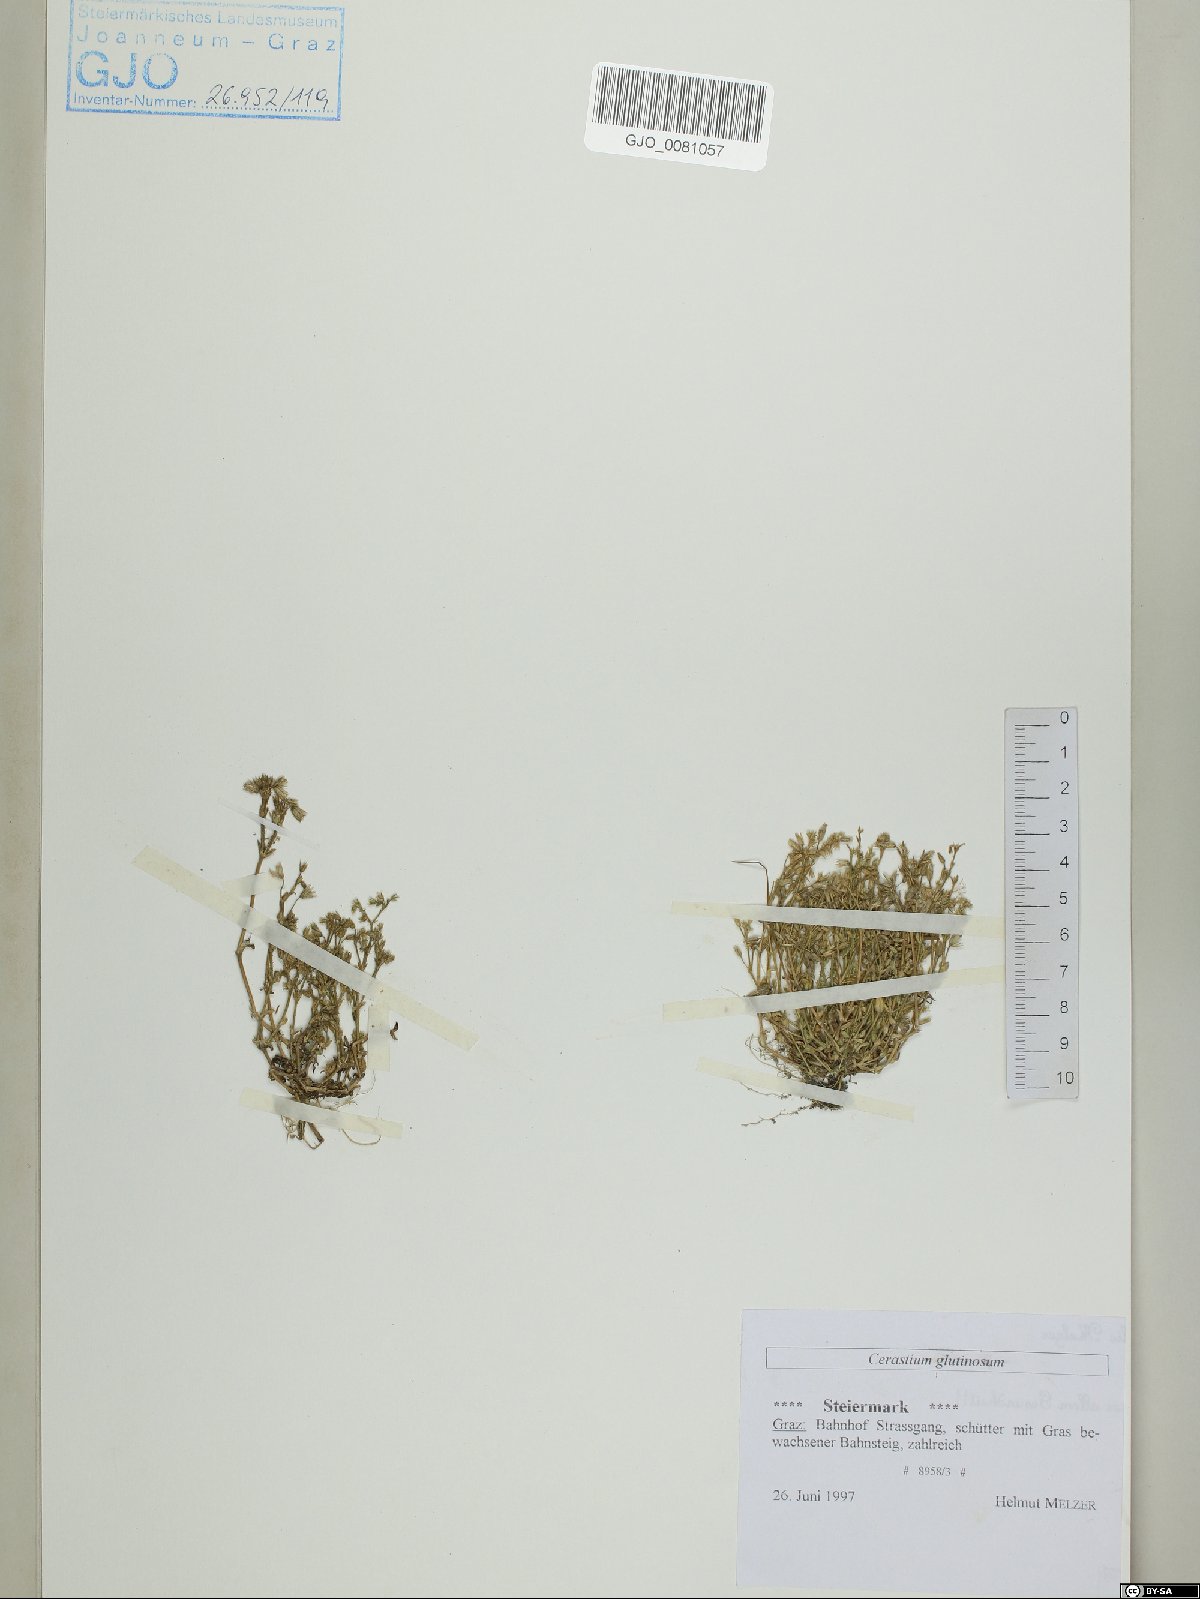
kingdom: Plantae
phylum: Tracheophyta
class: Magnoliopsida
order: Caryophyllales
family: Caryophyllaceae
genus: Cerastium
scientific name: Cerastium glutinosum
